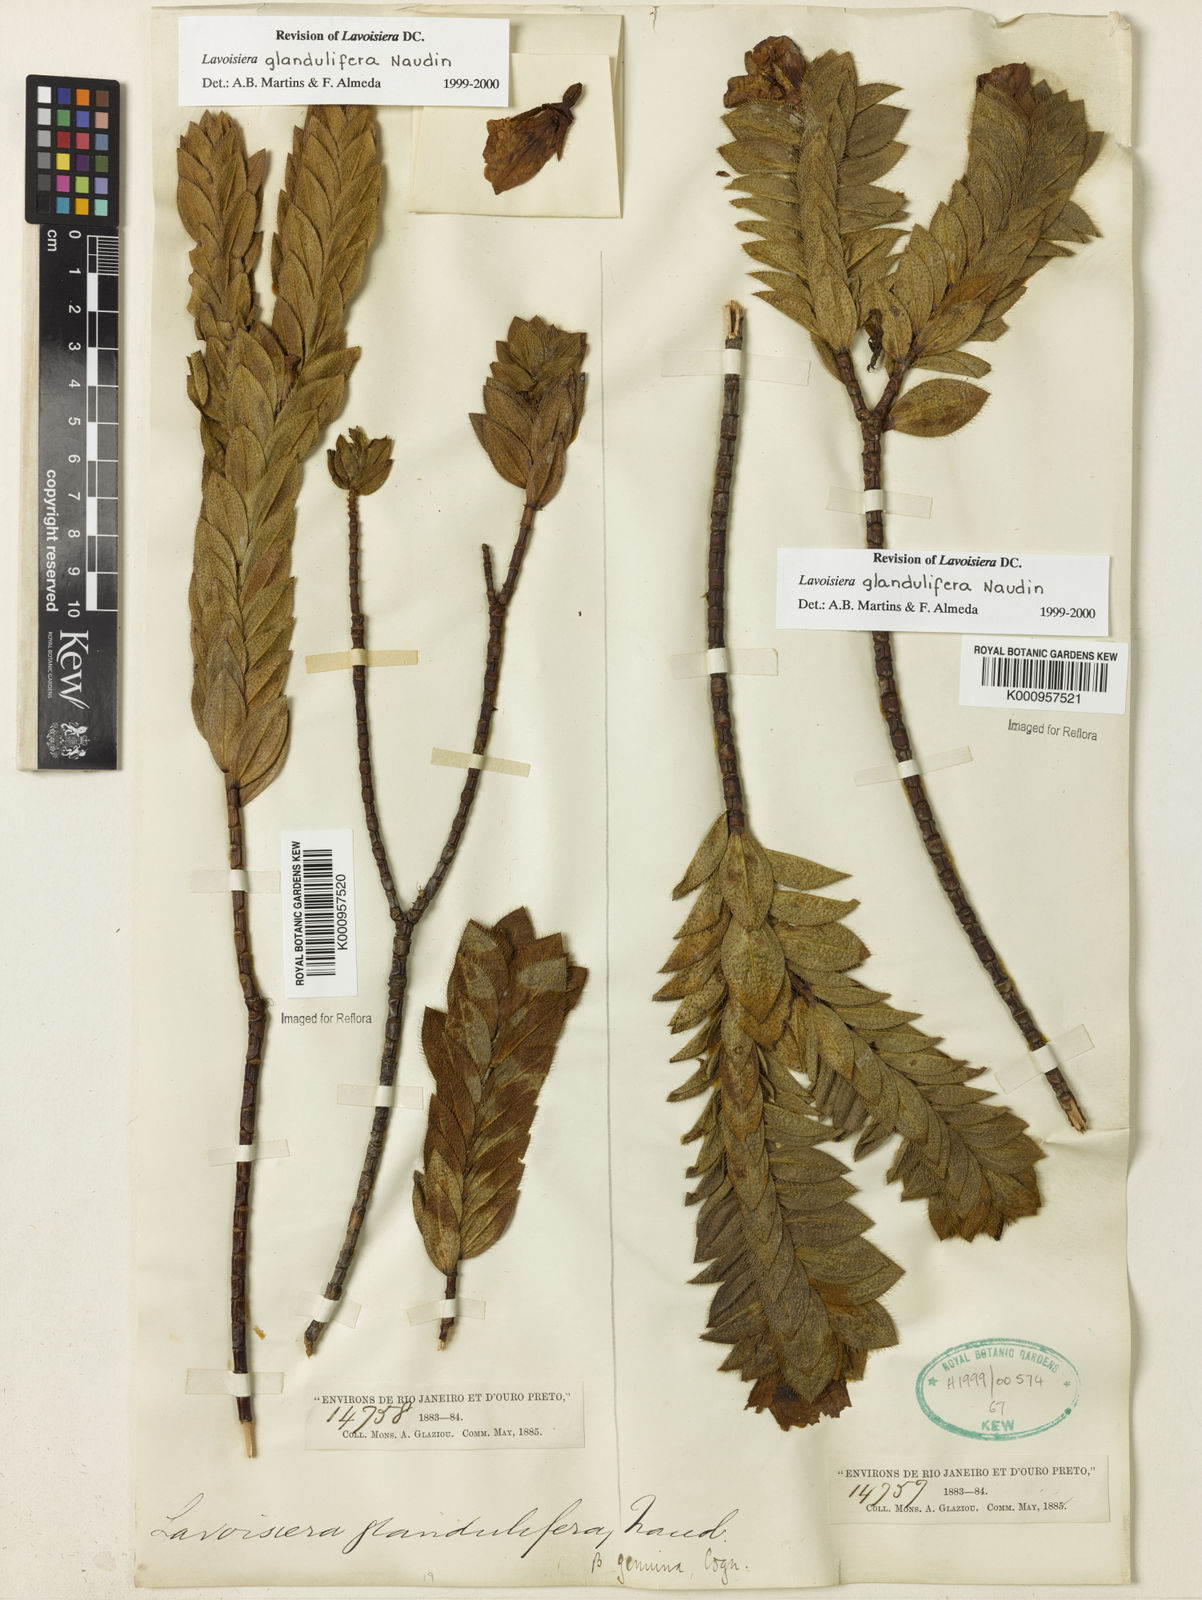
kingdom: Plantae
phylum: Tracheophyta
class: Magnoliopsida
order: Myrtales
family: Melastomataceae
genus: Microlicia
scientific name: Microlicia glandulifolia
